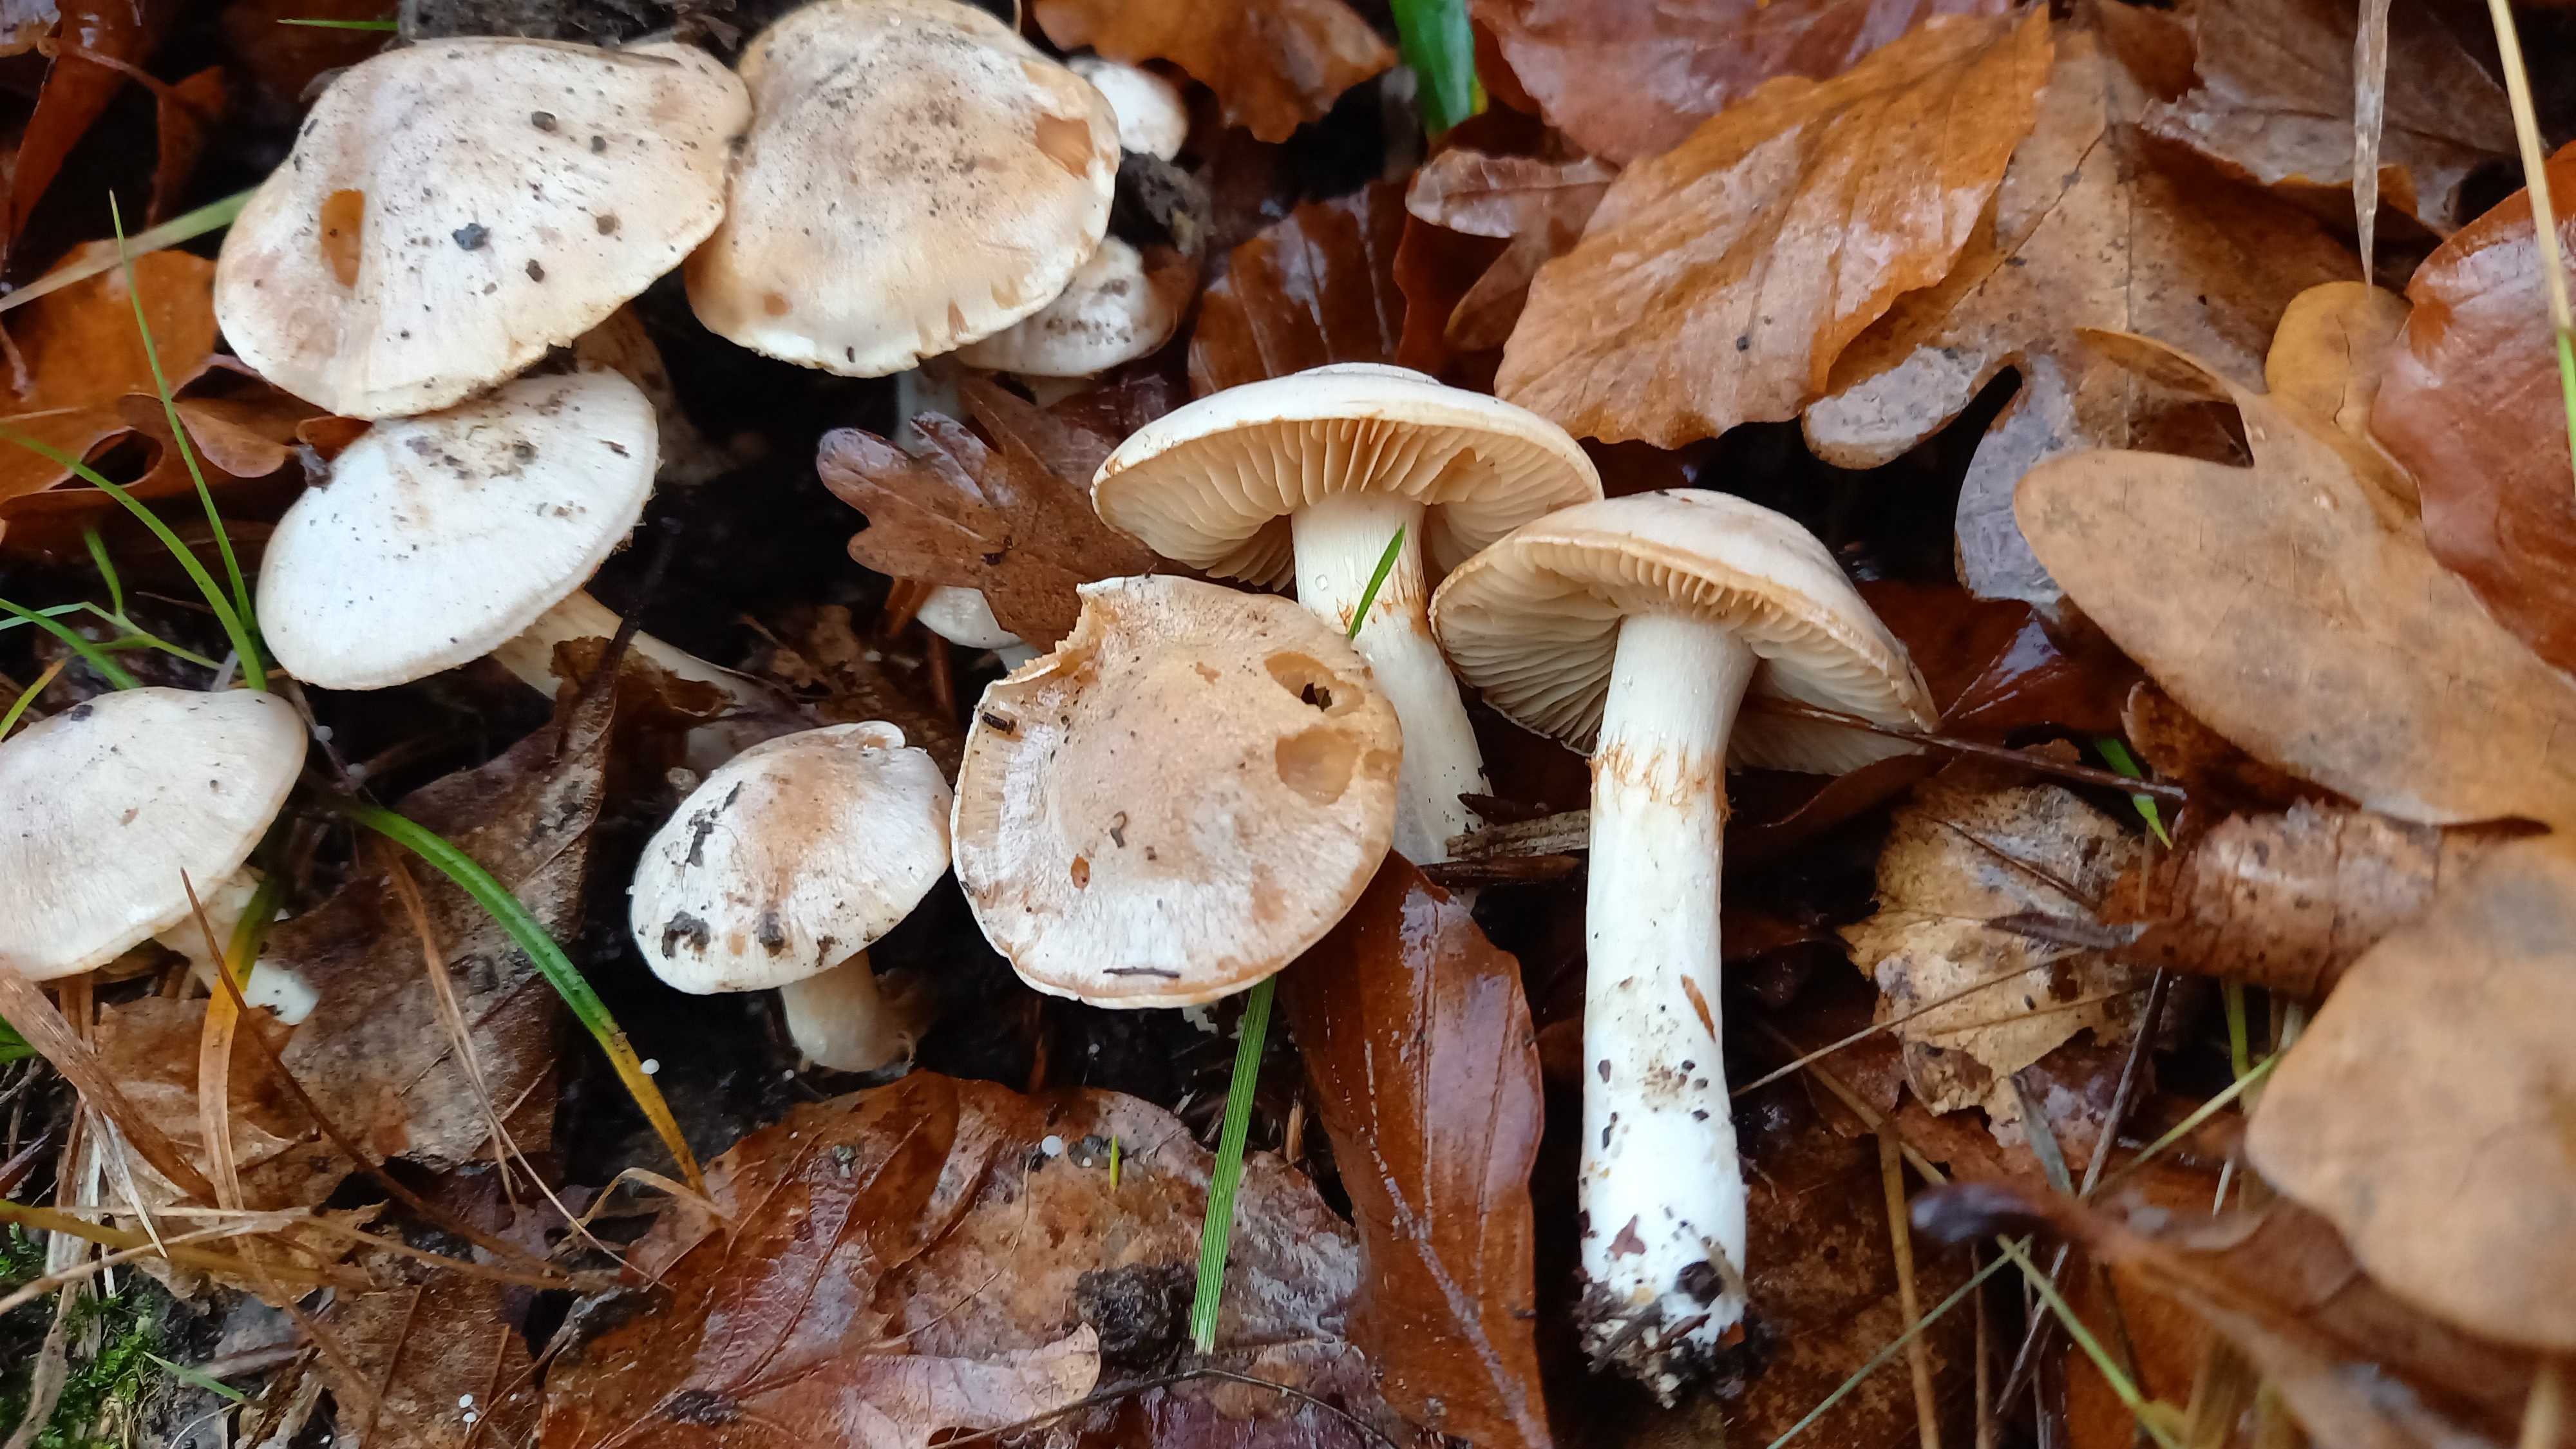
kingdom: Fungi
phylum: Basidiomycota
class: Agaricomycetes
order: Agaricales
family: Cortinariaceae
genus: Thaxterogaster
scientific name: Thaxterogaster leucoluteolus
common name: isabella slørhat
